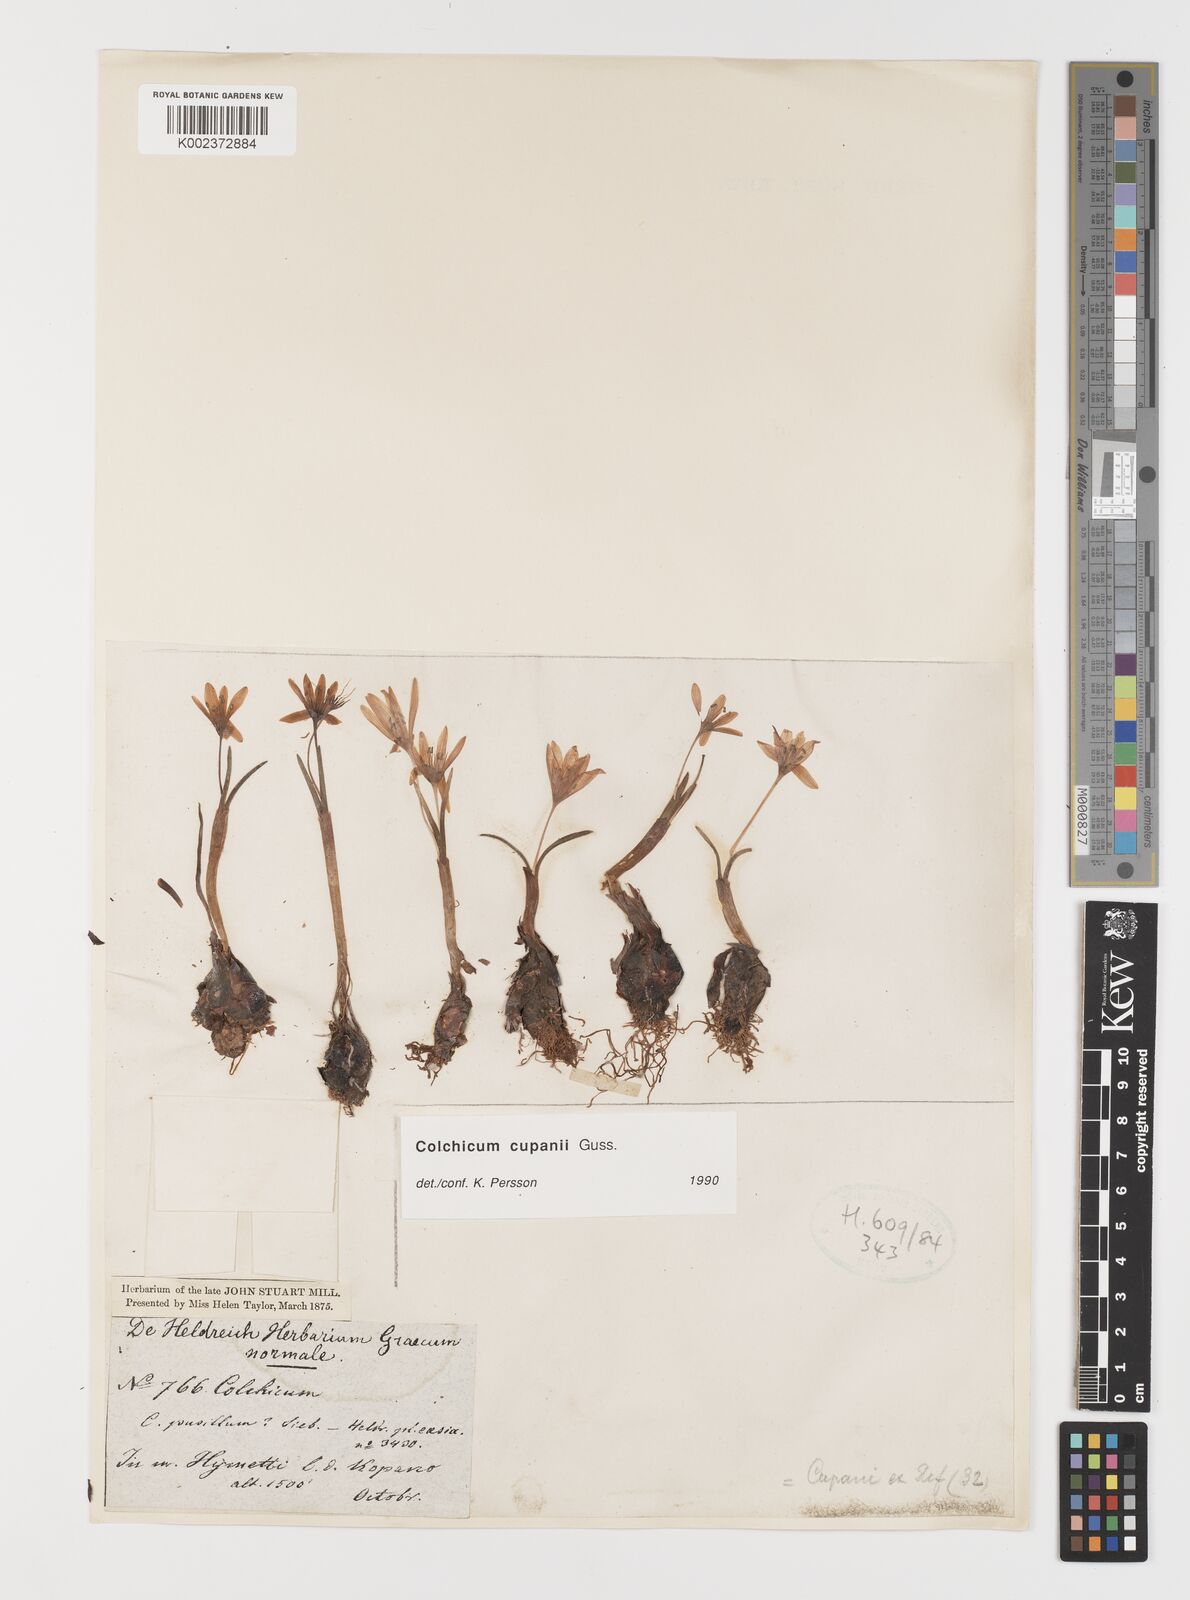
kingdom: Plantae
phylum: Tracheophyta
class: Liliopsida
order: Liliales
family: Colchicaceae
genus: Colchicum
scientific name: Colchicum cupanii
